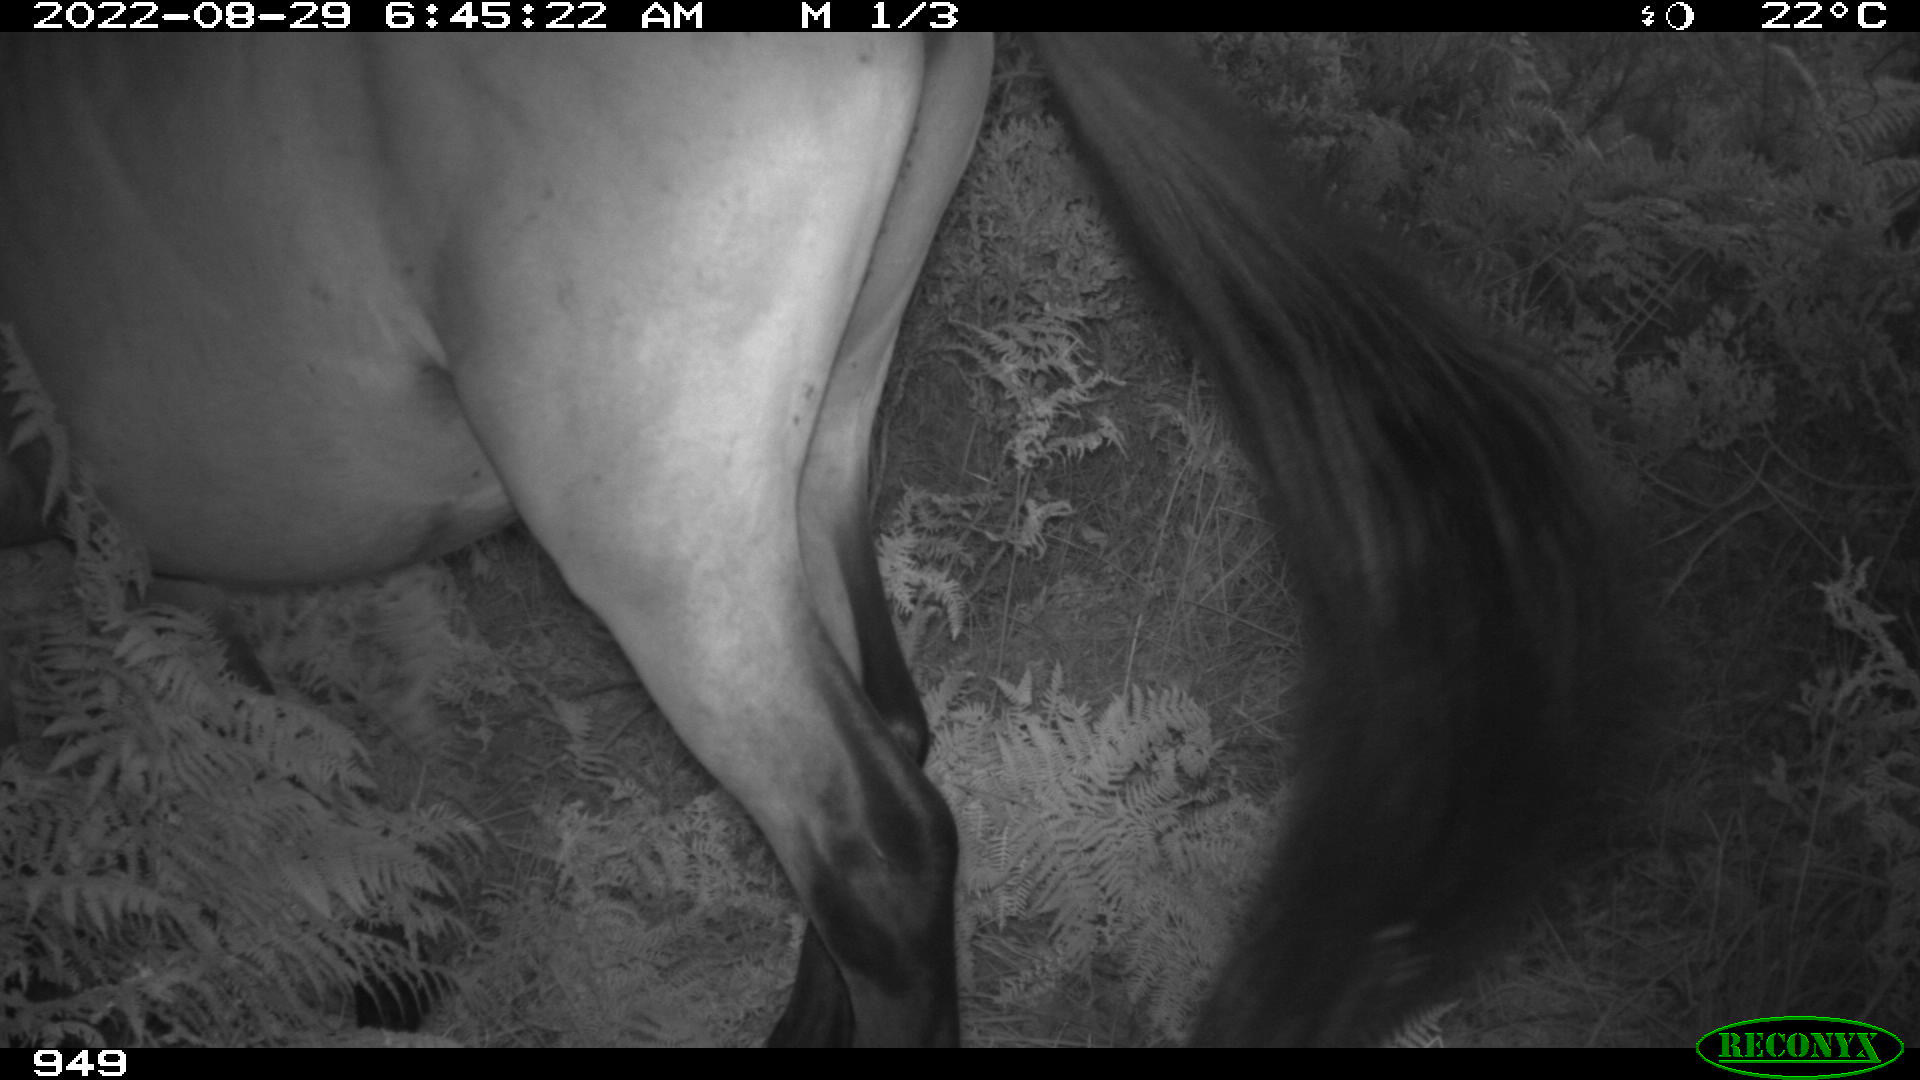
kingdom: Animalia
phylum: Chordata
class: Mammalia
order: Perissodactyla
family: Equidae
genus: Equus
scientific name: Equus caballus
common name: Horse
